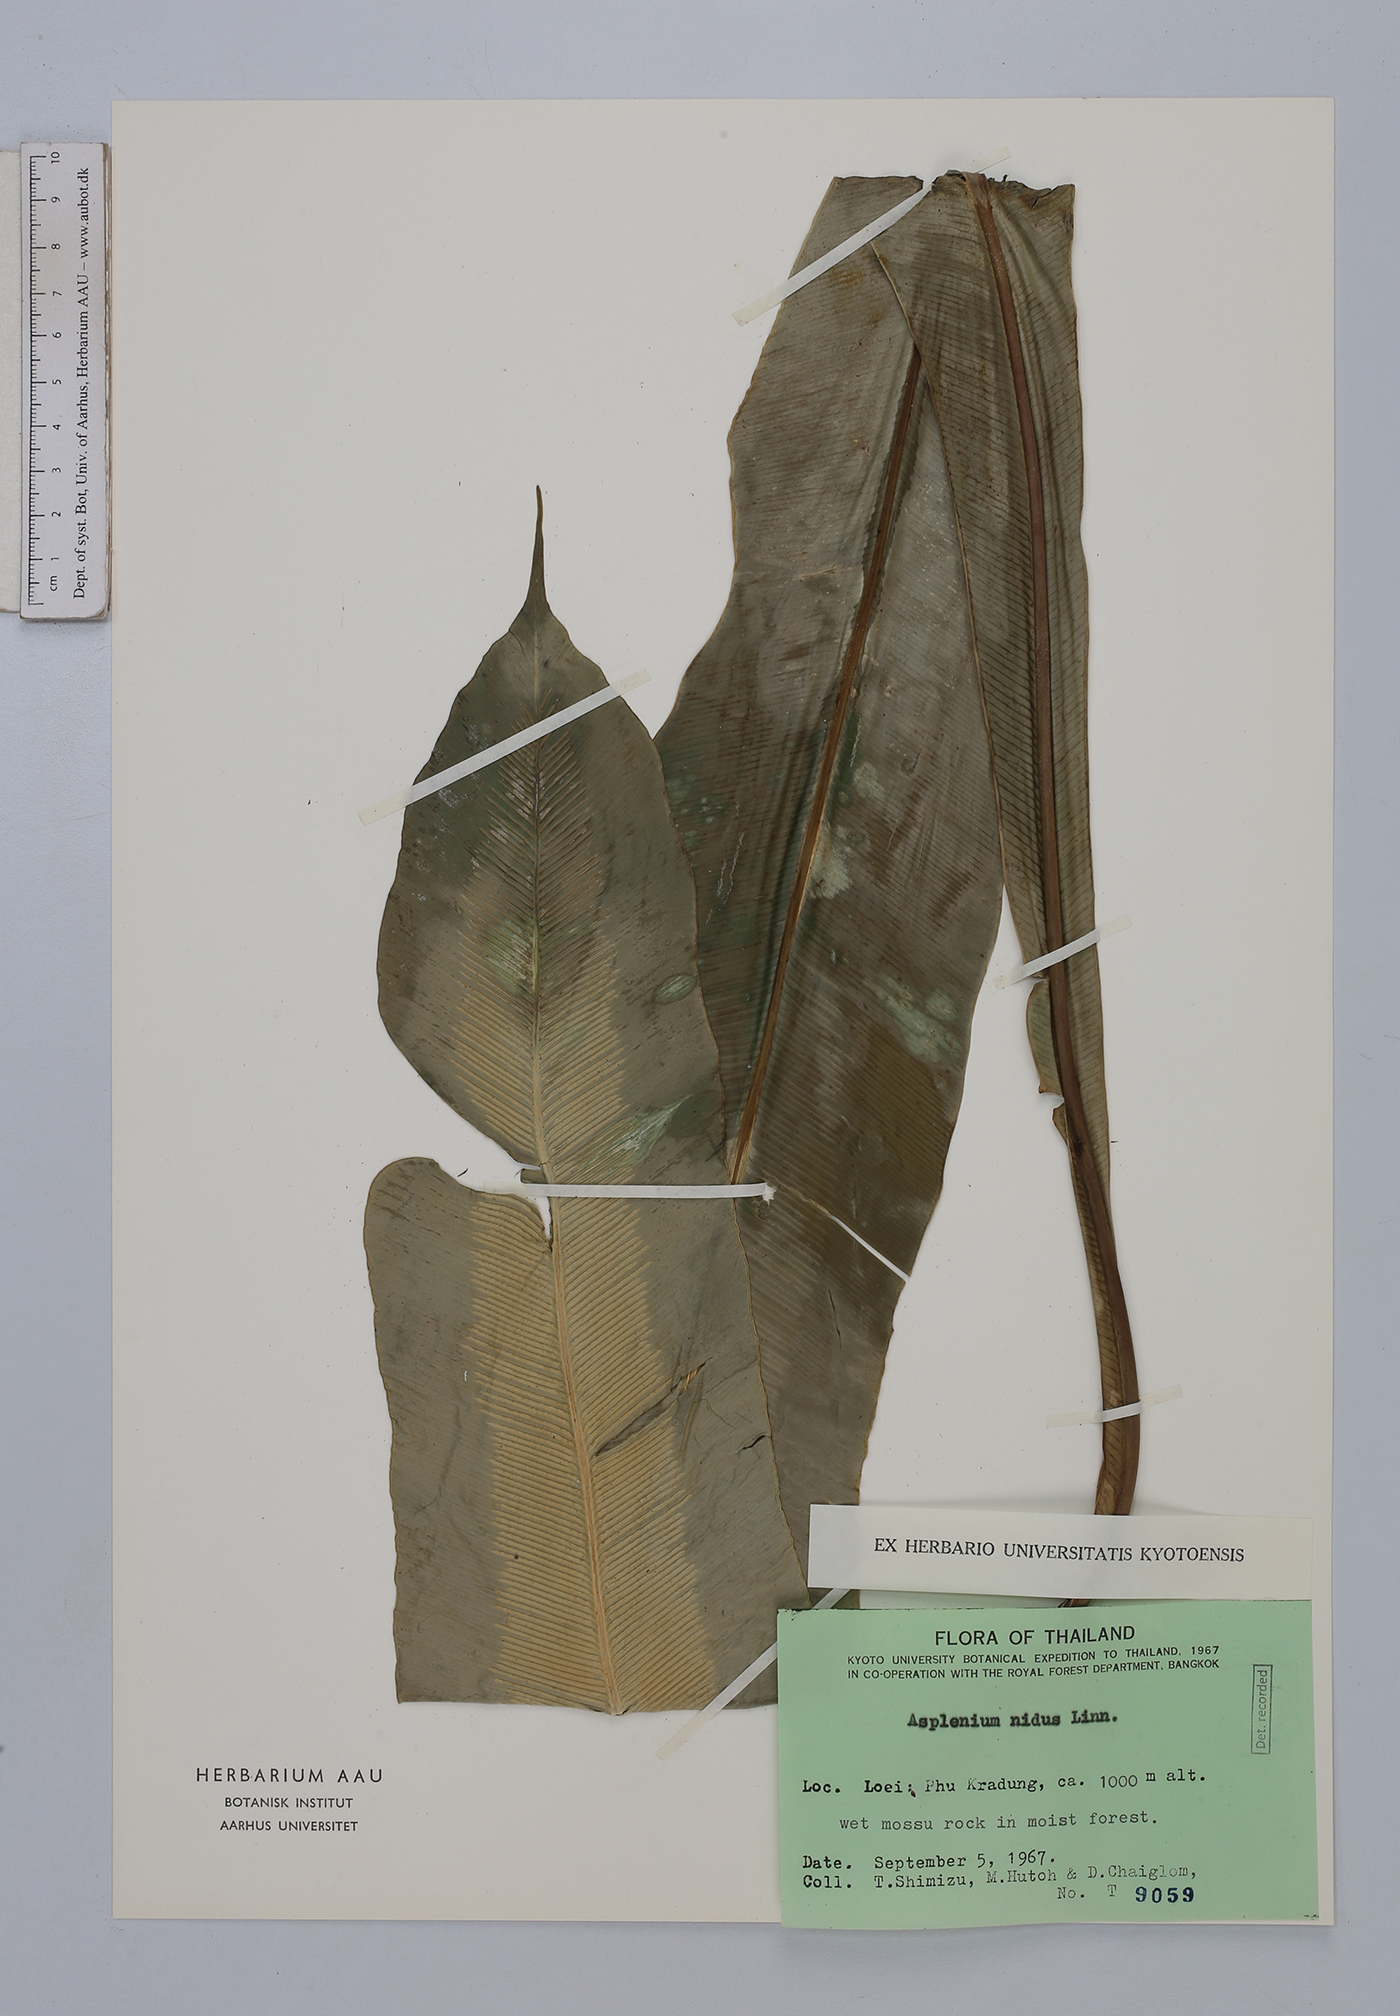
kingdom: Plantae
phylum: Tracheophyta
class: Polypodiopsida
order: Polypodiales
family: Aspleniaceae
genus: Asplenium
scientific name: Asplenium nidus
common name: Bird's-nest fern
